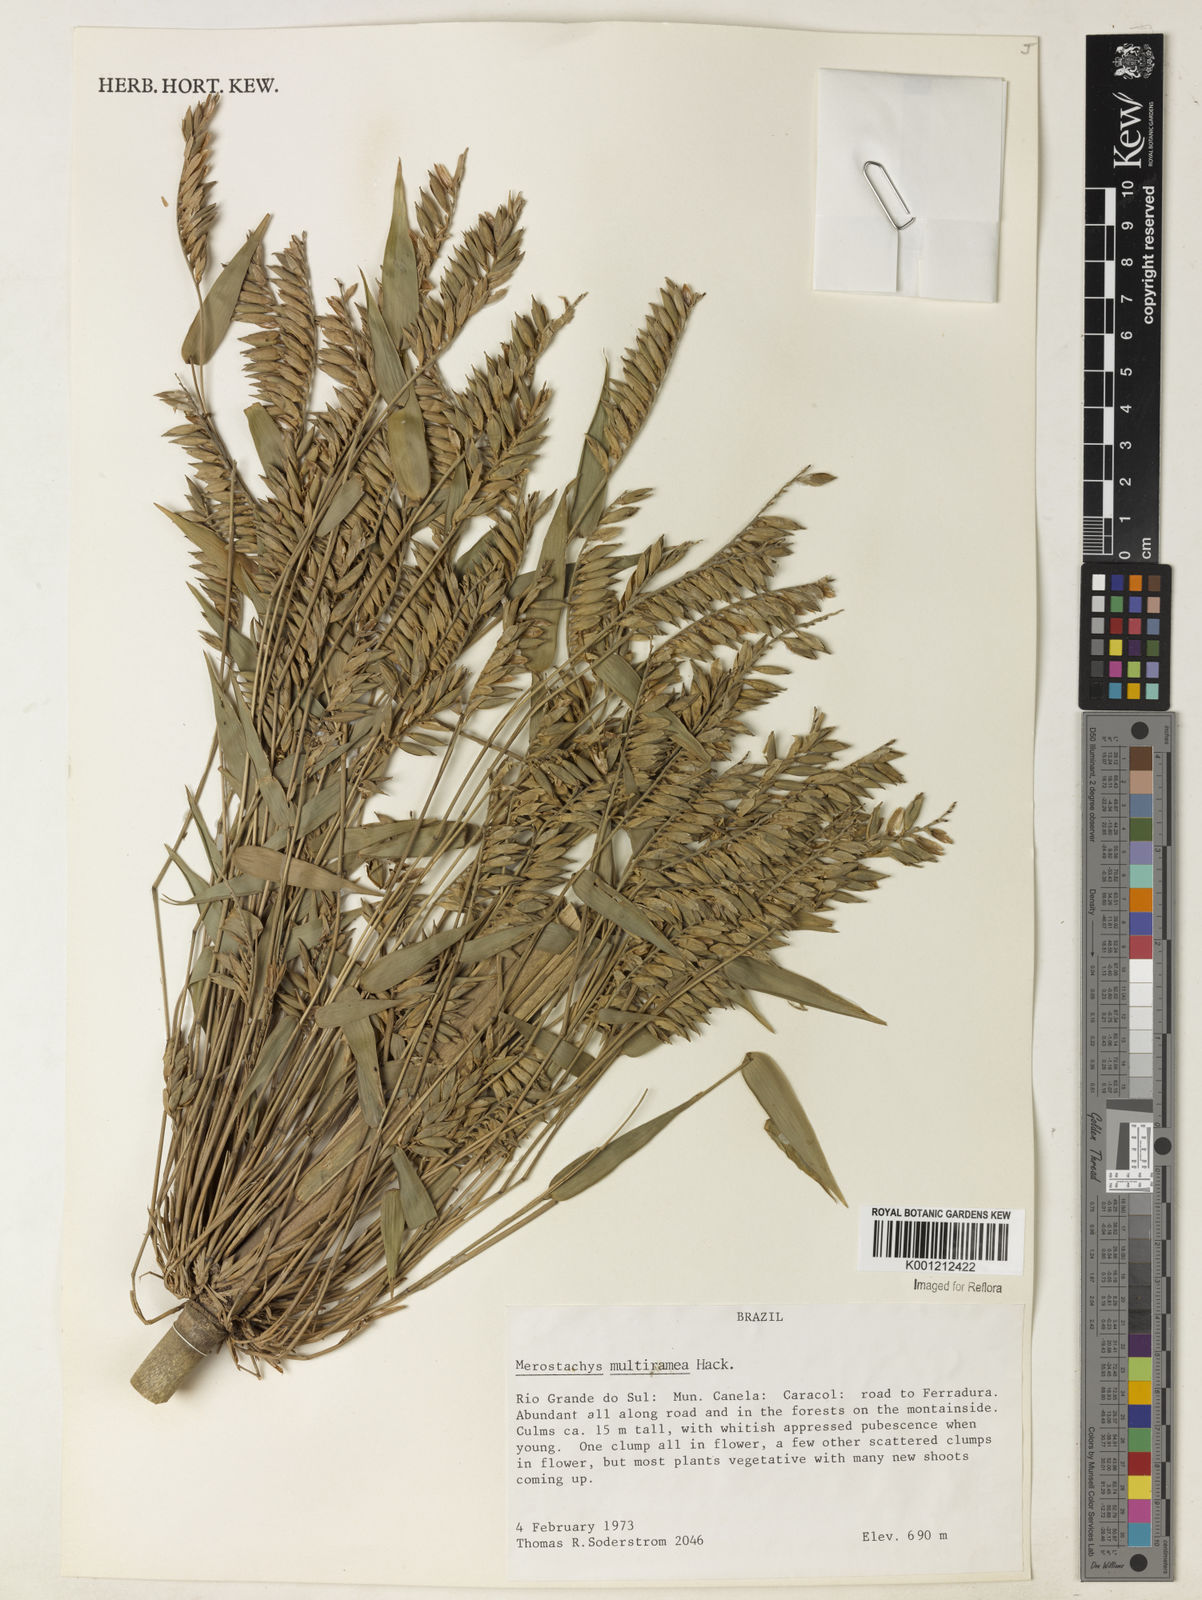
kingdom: Plantae
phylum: Tracheophyta
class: Liliopsida
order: Poales
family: Poaceae
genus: Merostachys
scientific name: Merostachys multiramea
